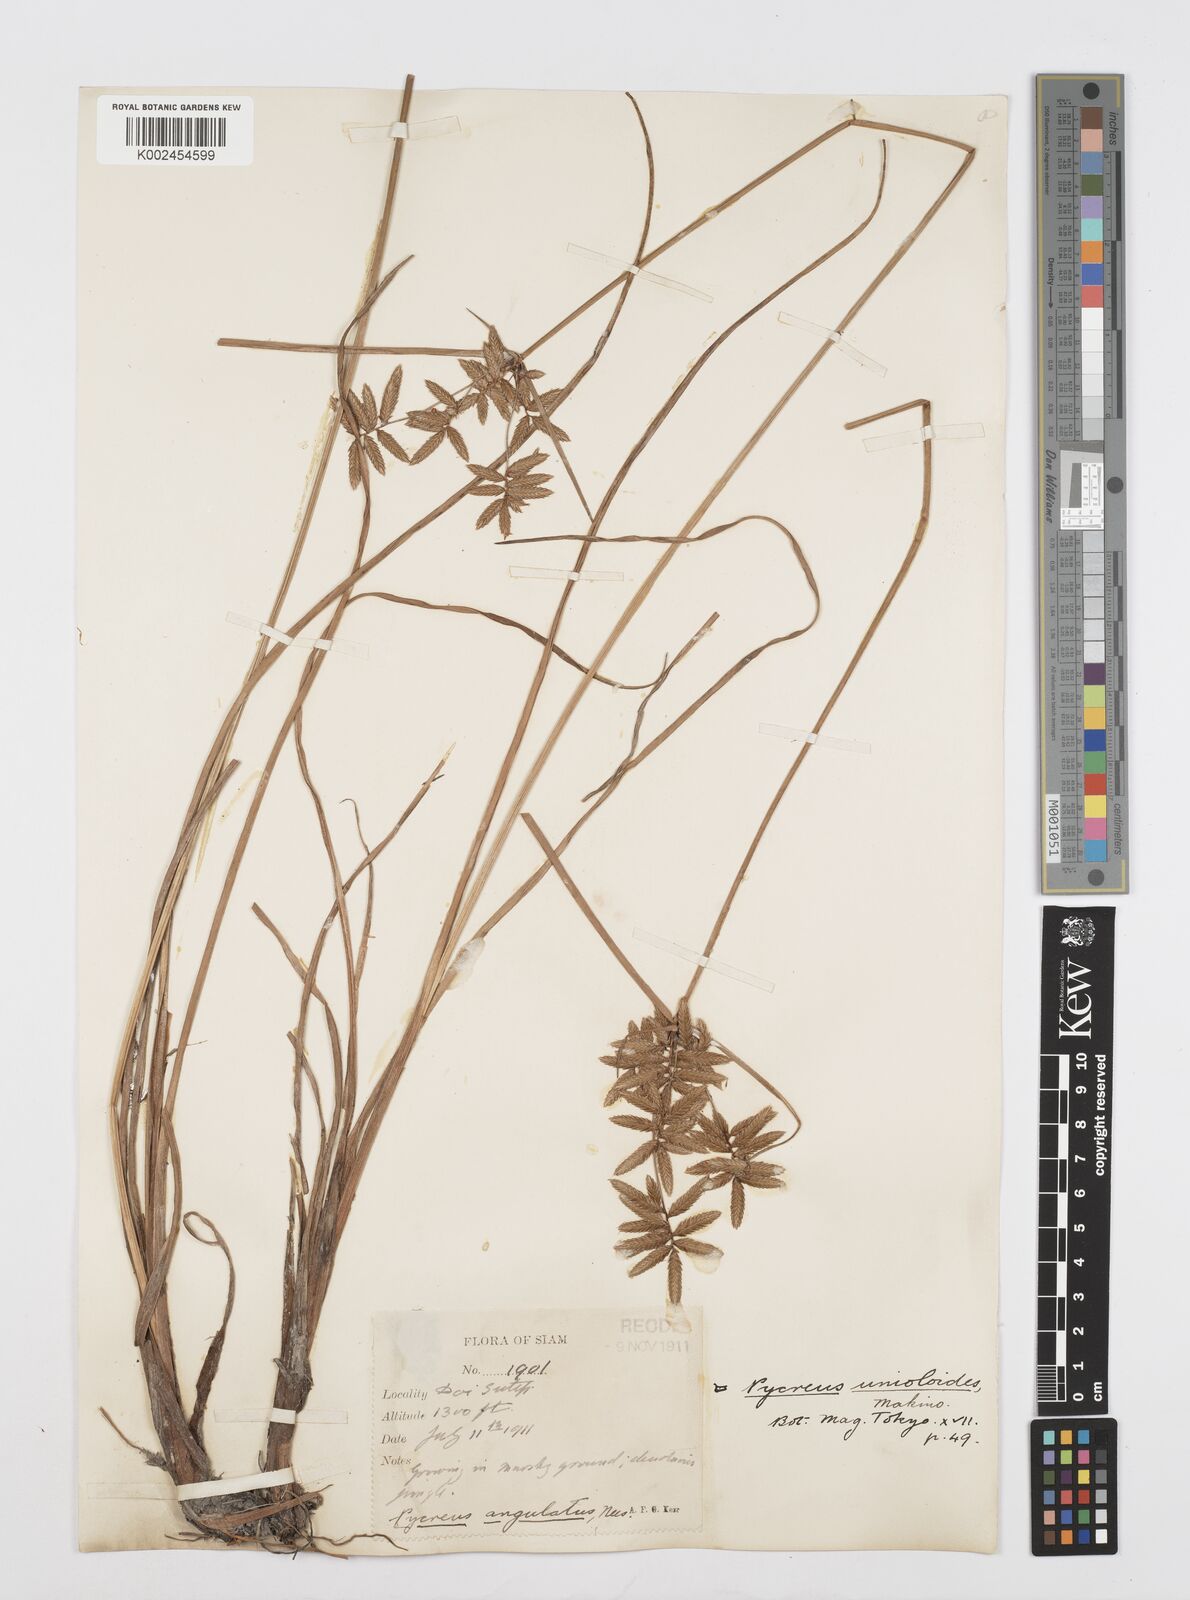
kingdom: Plantae
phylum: Tracheophyta
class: Liliopsida
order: Poales
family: Cyperaceae
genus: Cyperus
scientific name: Cyperus unioloides
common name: Uniola flatsedge
